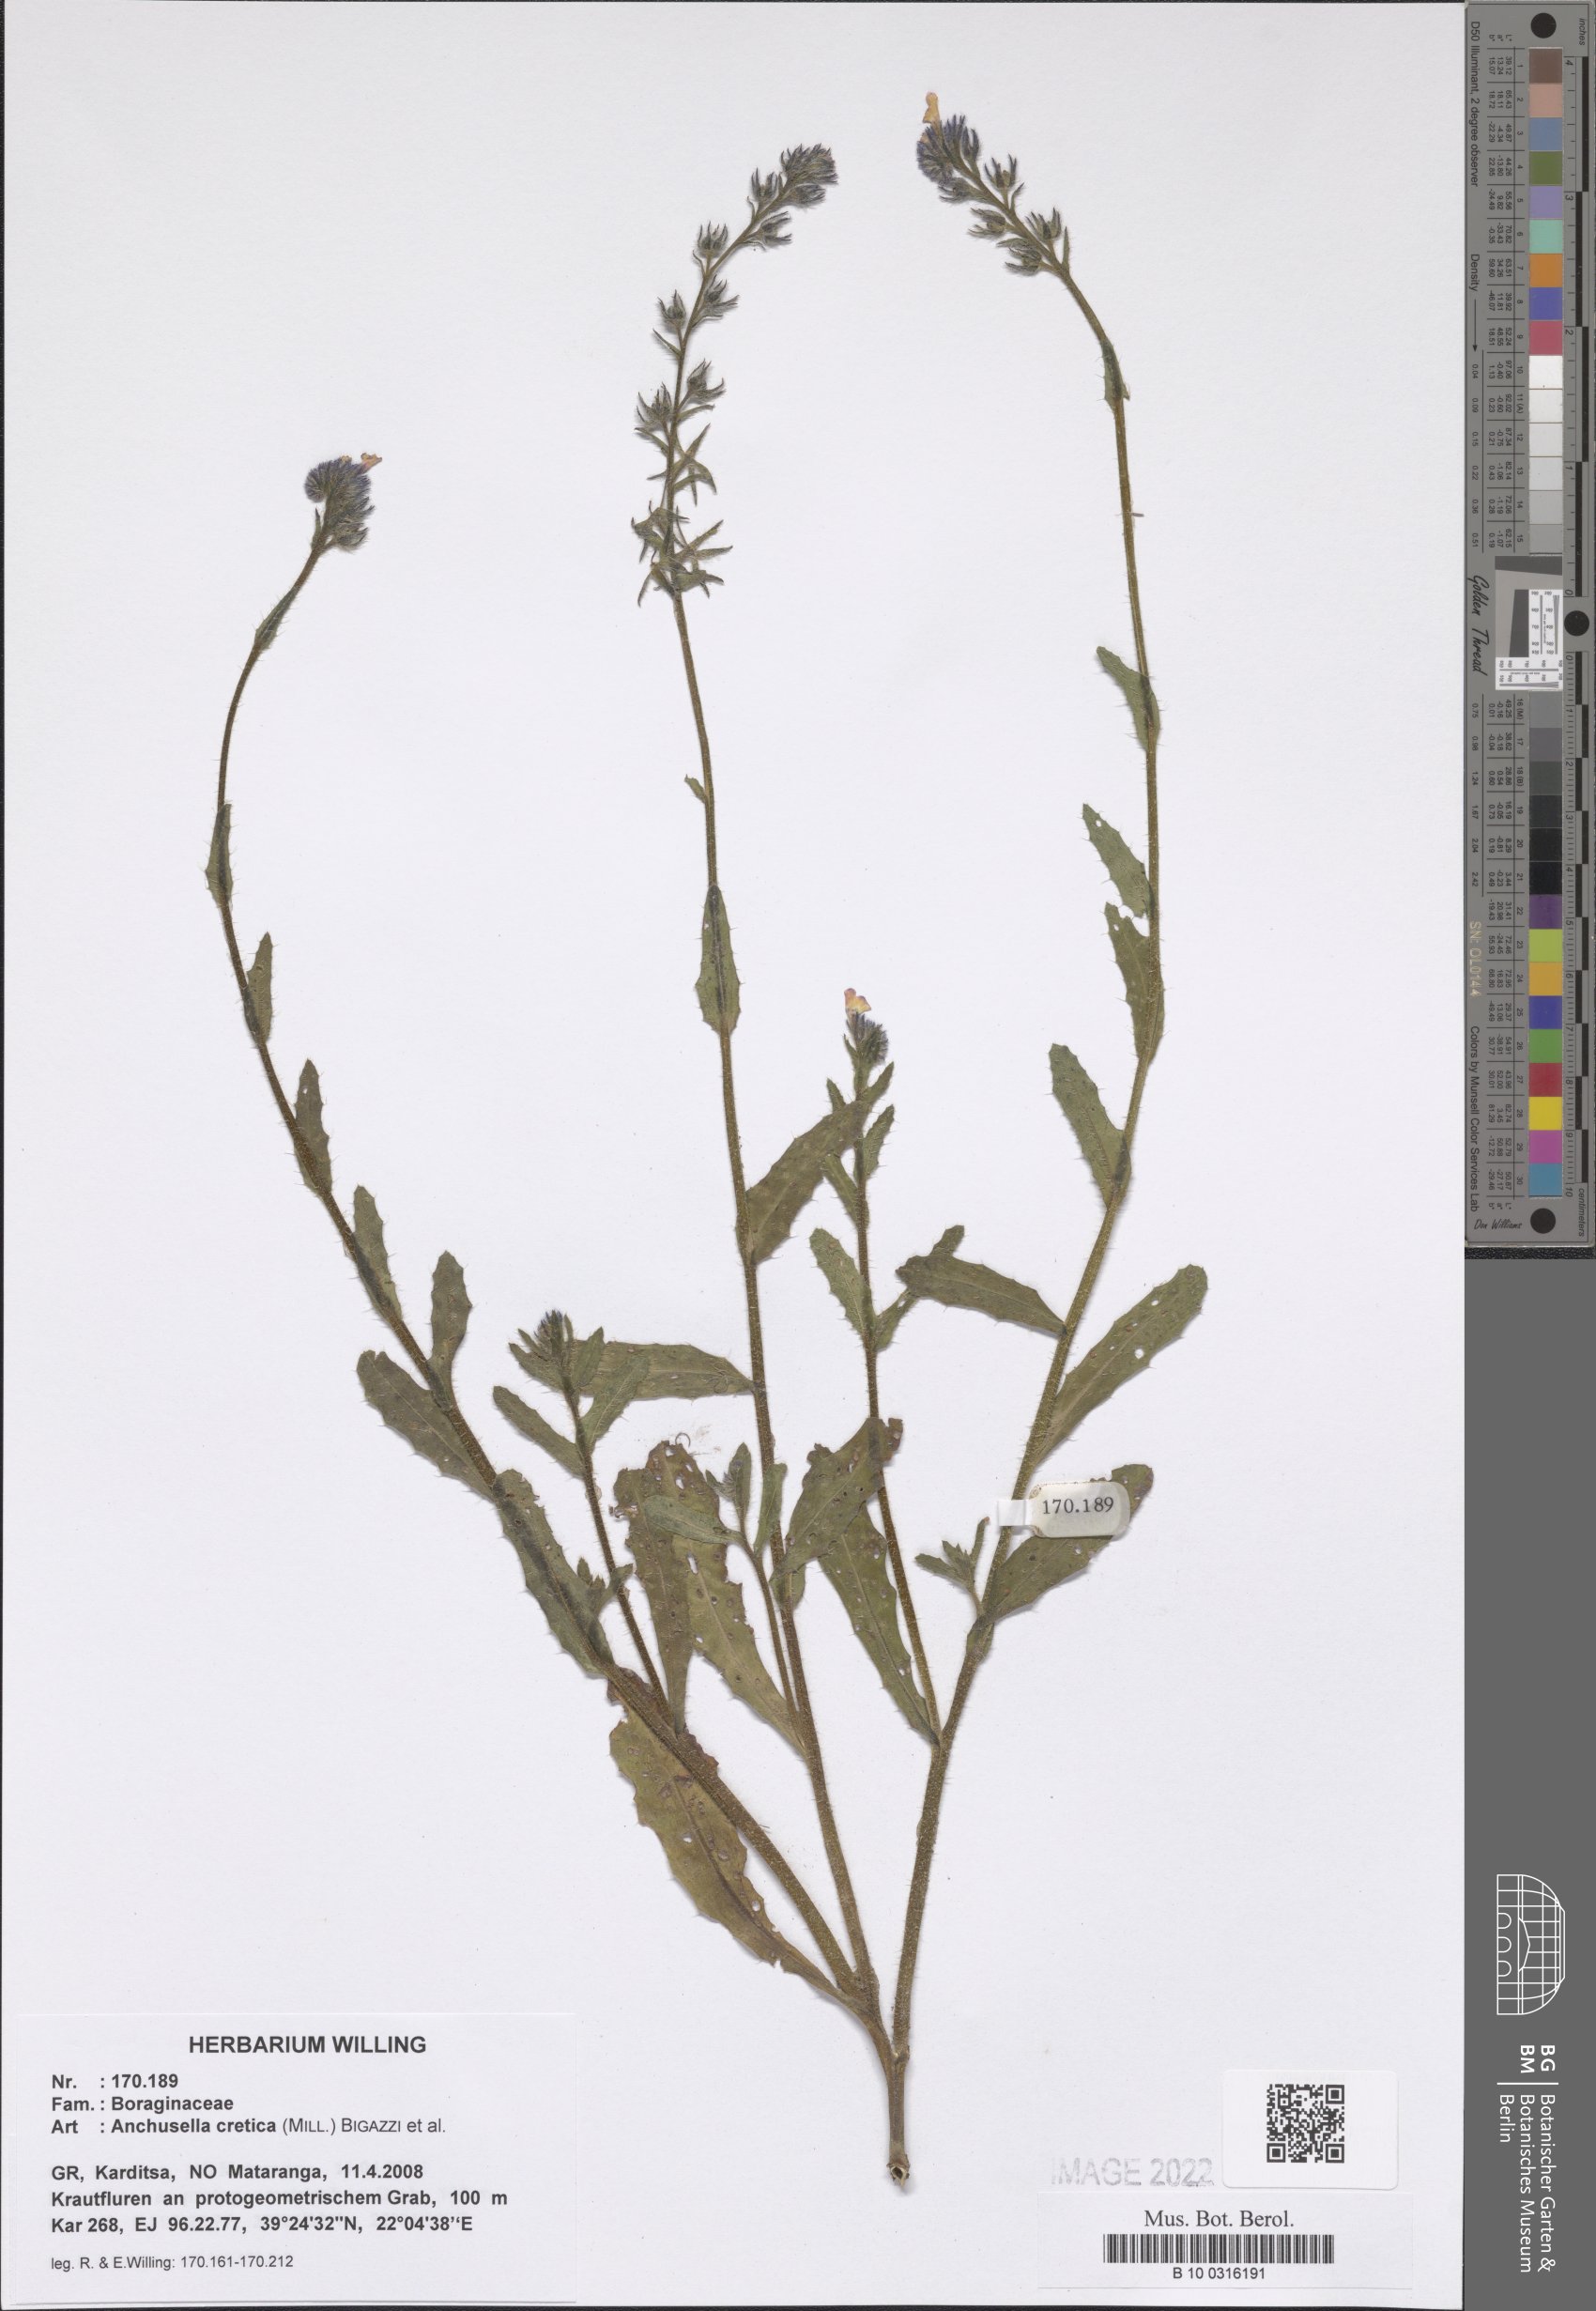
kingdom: Plantae
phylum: Tracheophyta
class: Magnoliopsida
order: Boraginales
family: Boraginaceae
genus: Anchusella
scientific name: Anchusella cretica
